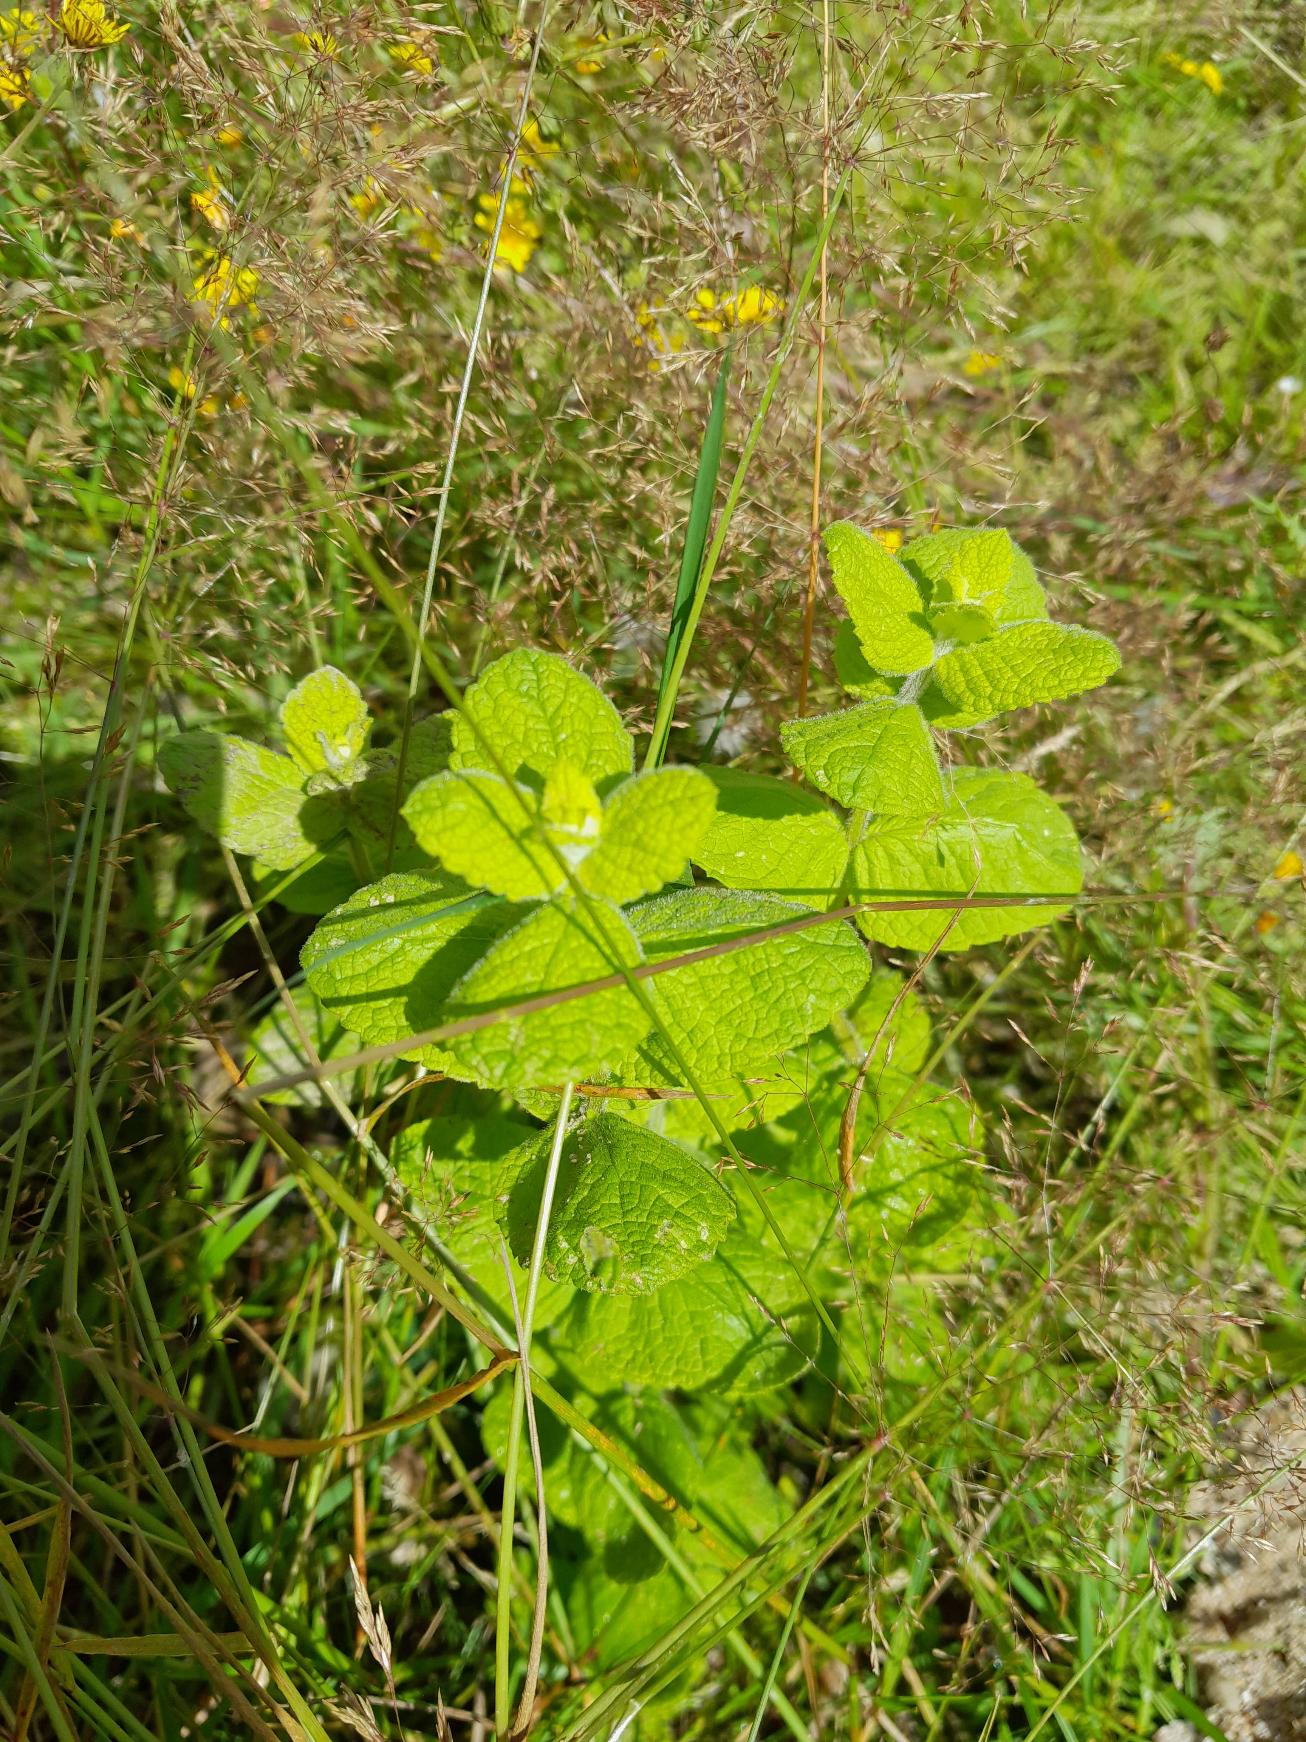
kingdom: Plantae
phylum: Tracheophyta
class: Magnoliopsida
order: Lamiales
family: Lamiaceae
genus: Mentha
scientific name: Mentha suaveolens
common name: Rundbladet mynte
